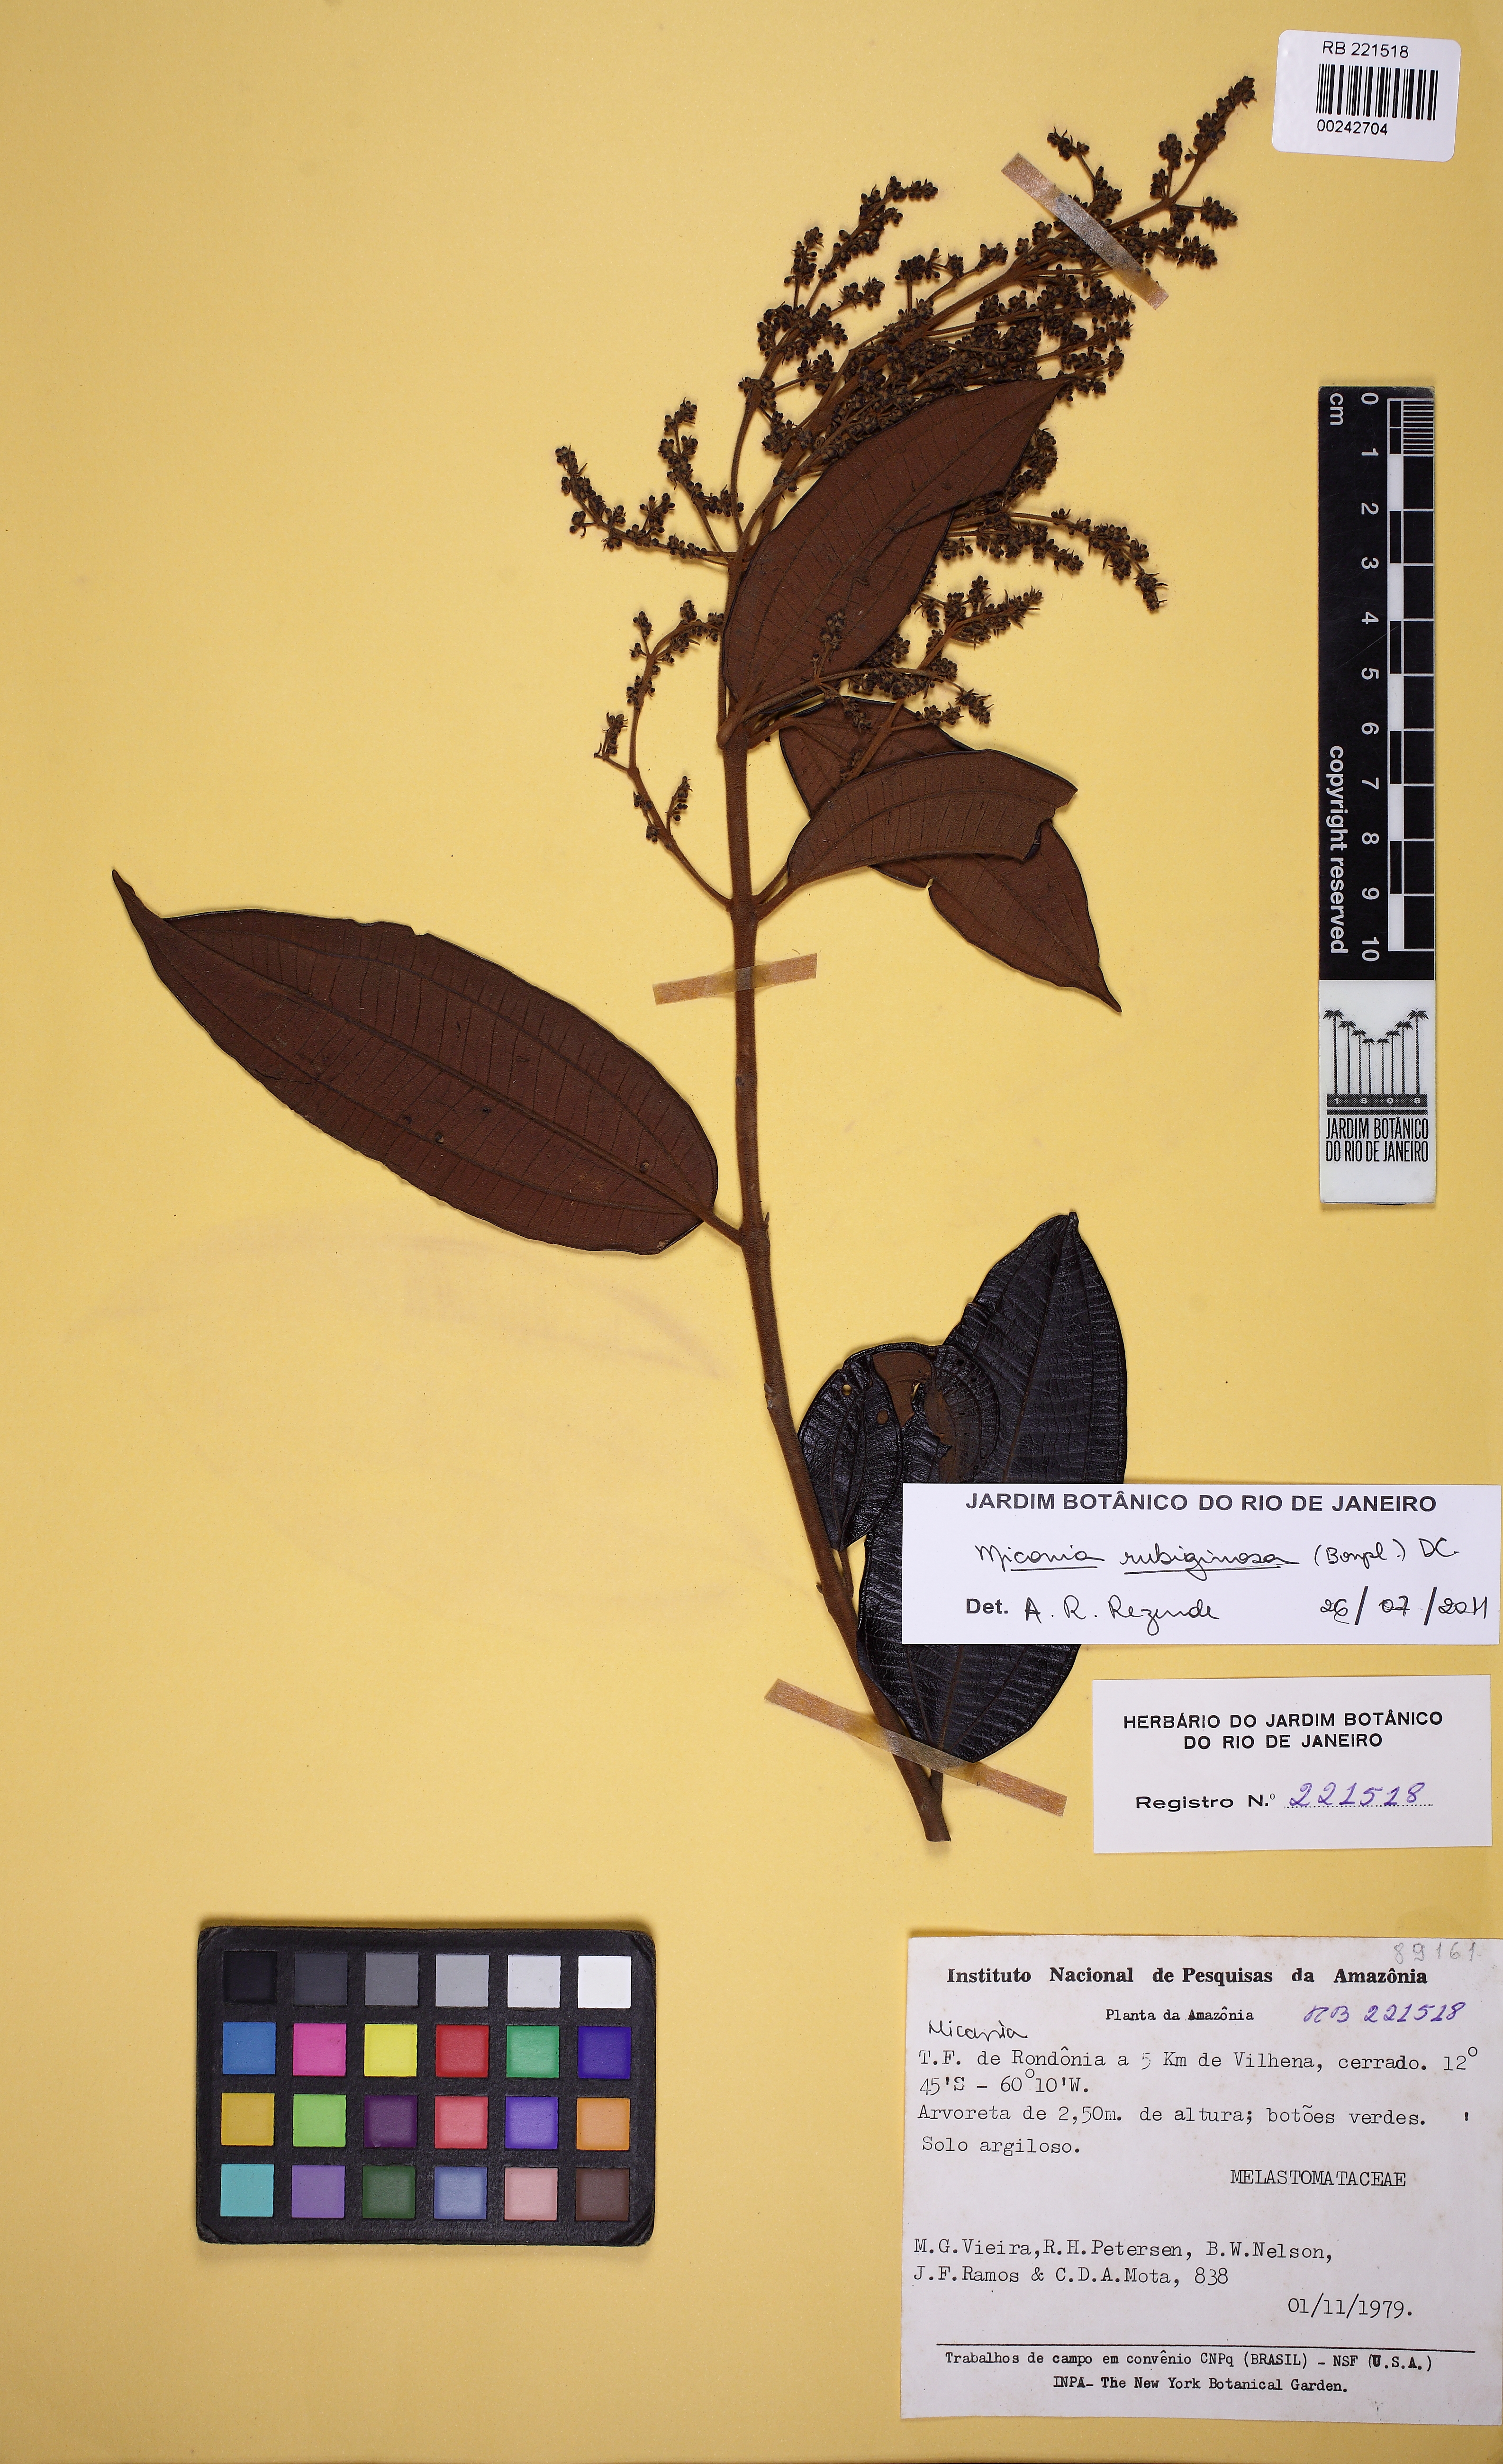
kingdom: Plantae
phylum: Tracheophyta
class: Magnoliopsida
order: Myrtales
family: Melastomataceae
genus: Miconia
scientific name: Miconia
